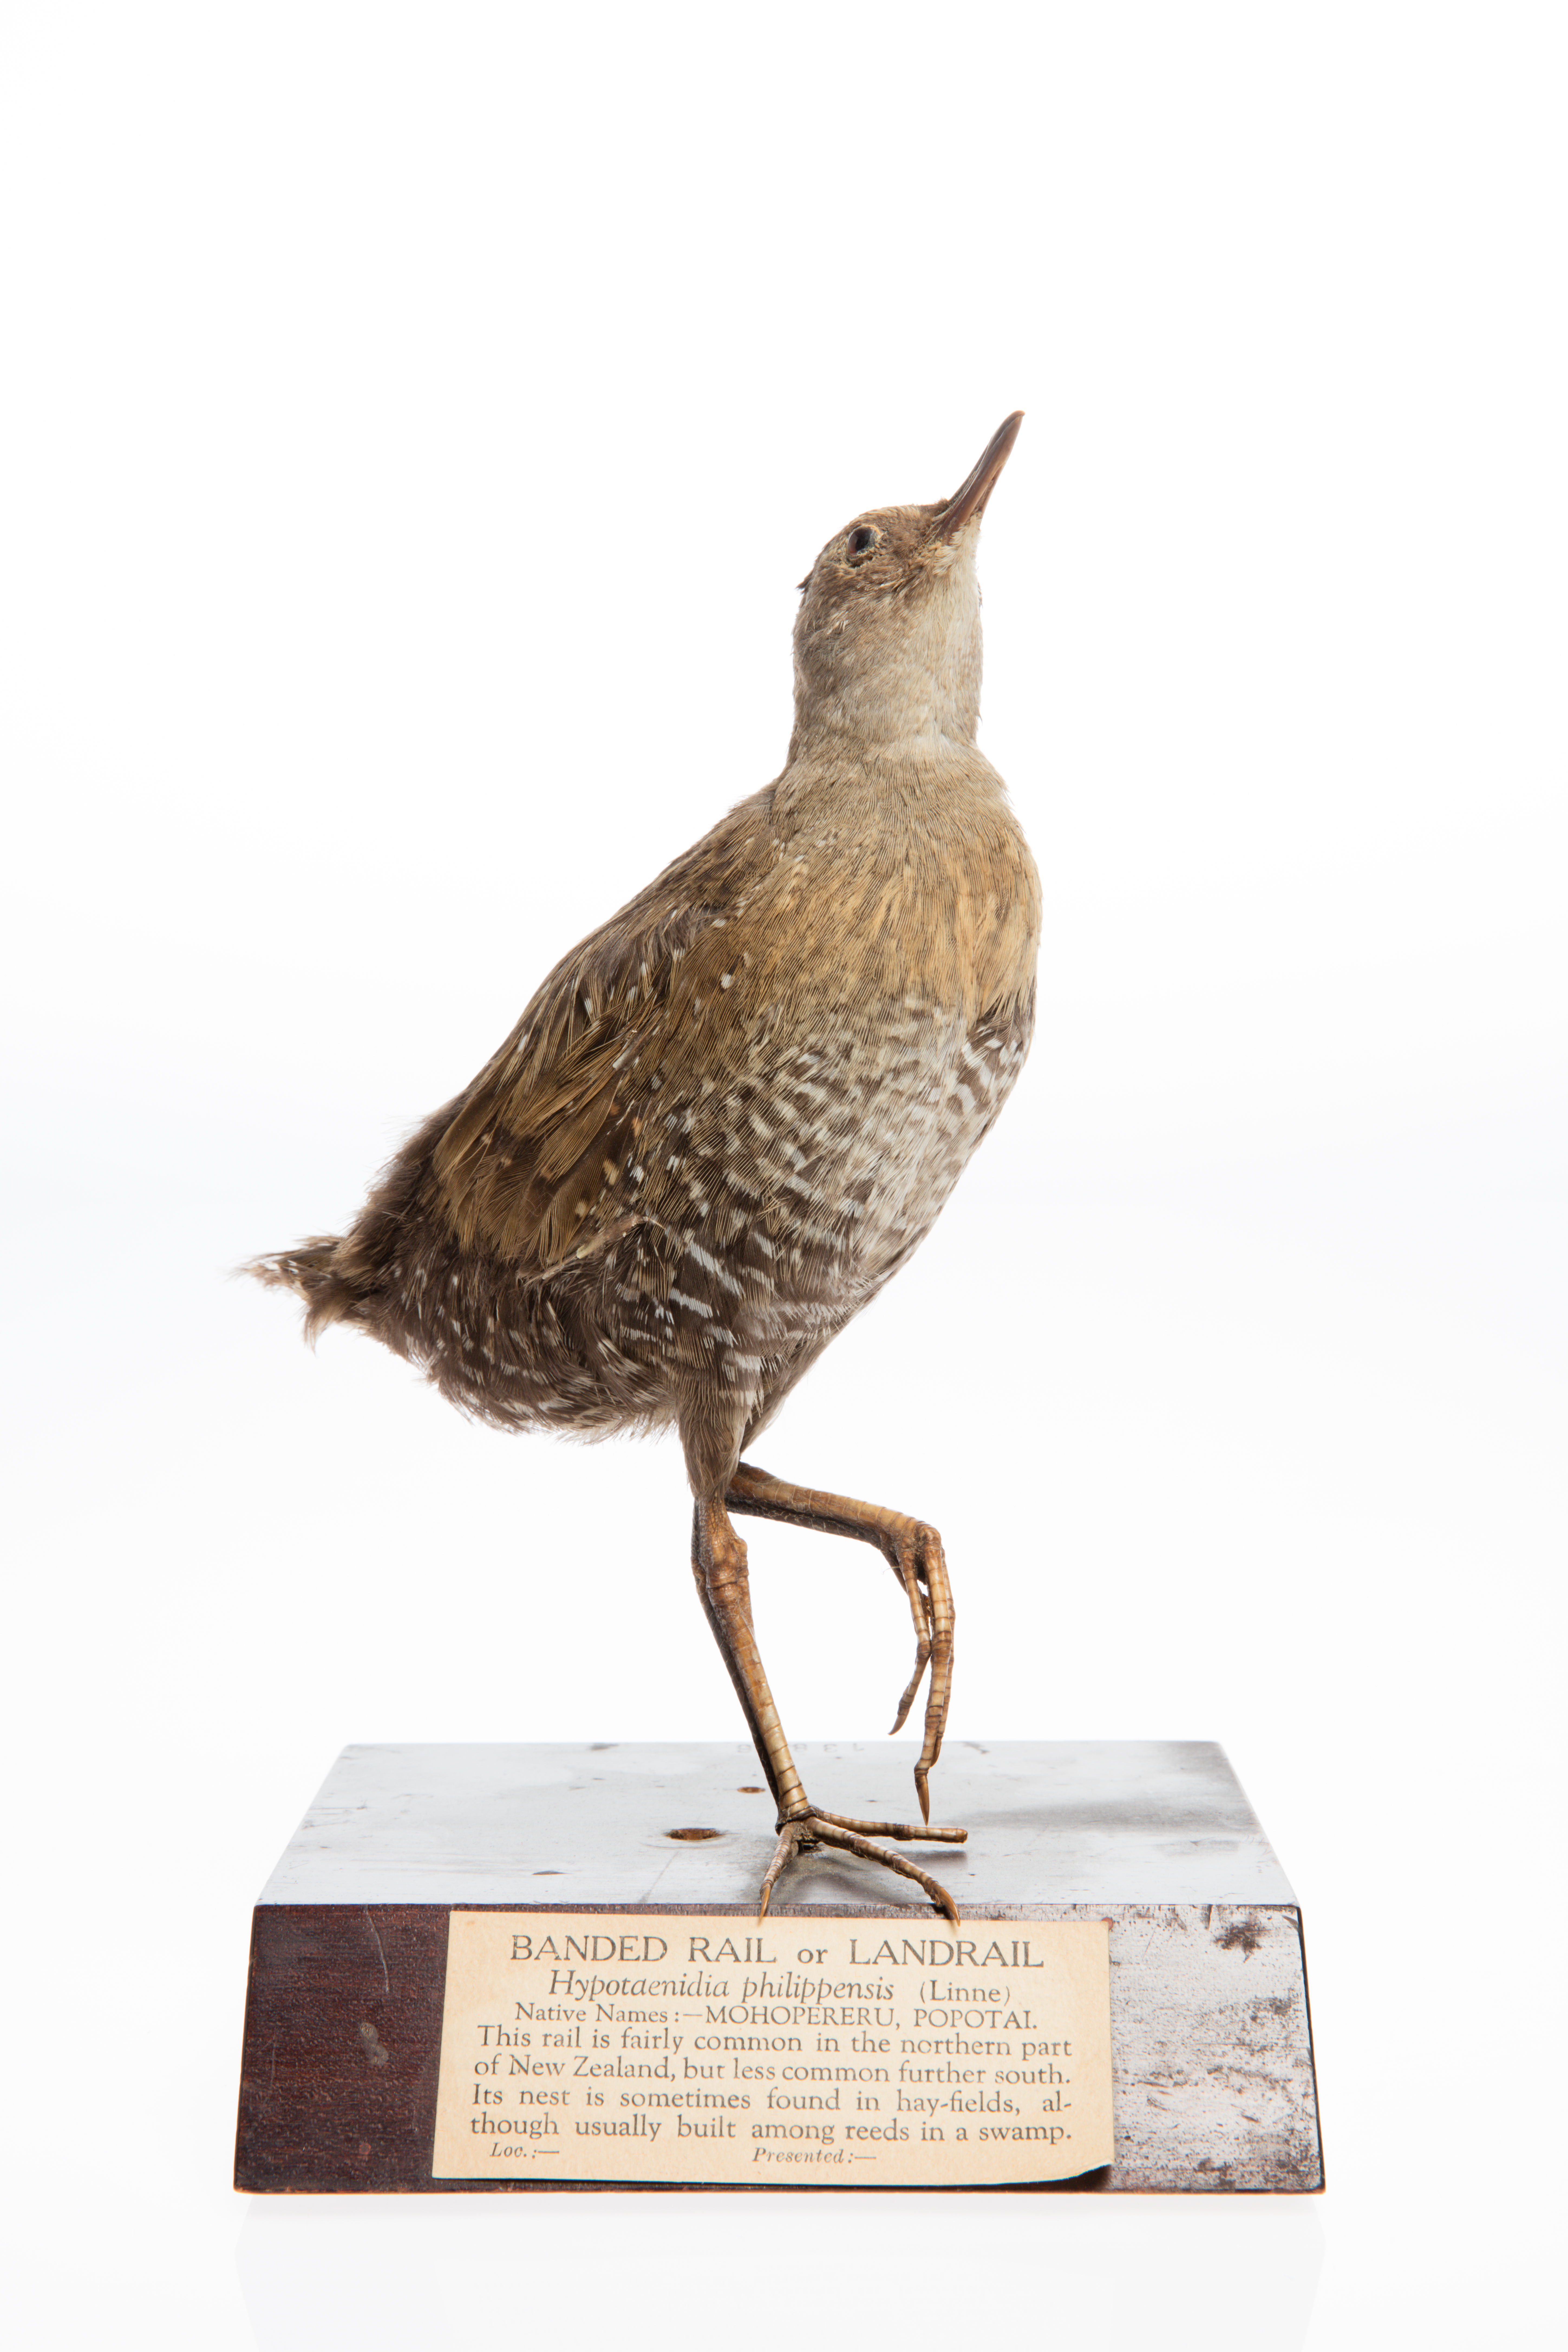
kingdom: Animalia
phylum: Chordata
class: Aves
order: Gruiformes
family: Rallidae
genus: Gallirallus
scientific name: Gallirallus philippensis
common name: Buff-banded rail
